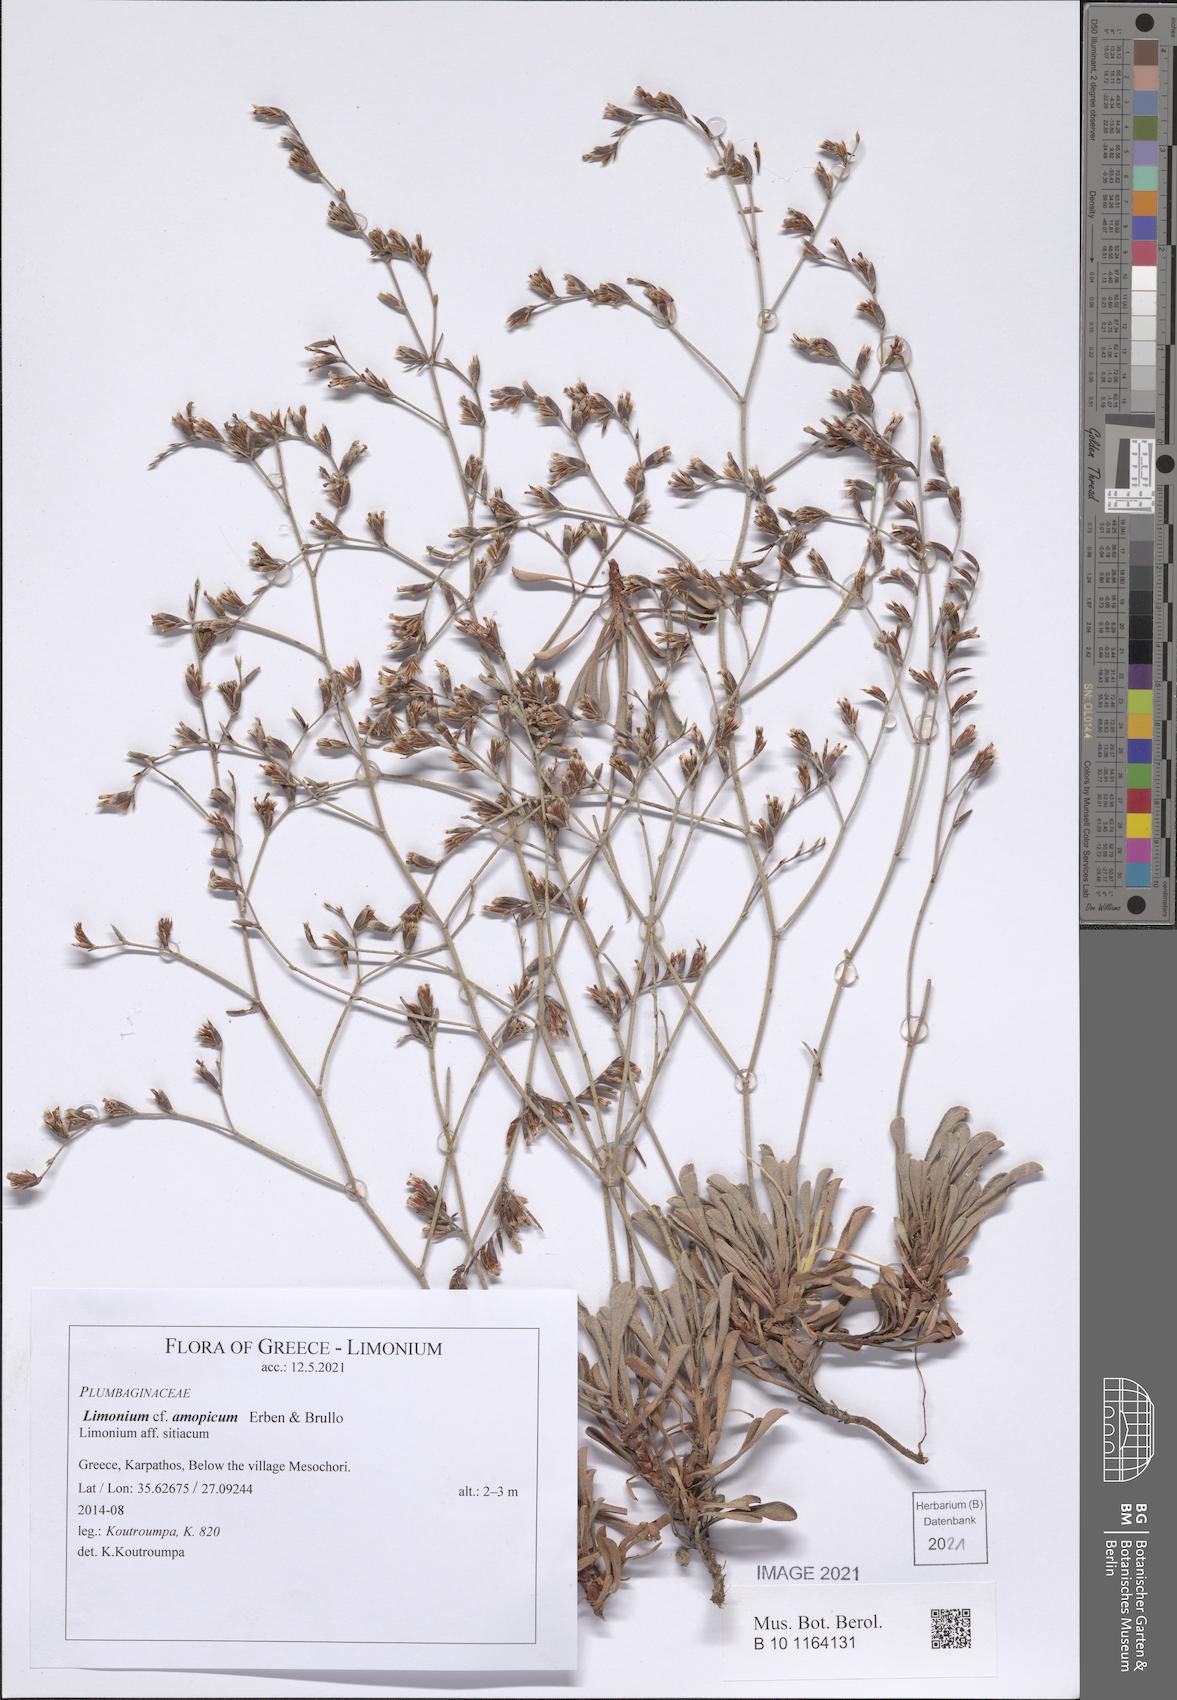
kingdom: Plantae
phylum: Tracheophyta
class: Magnoliopsida
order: Caryophyllales
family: Plumbaginaceae
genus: Limonium
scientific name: Limonium amopicum
